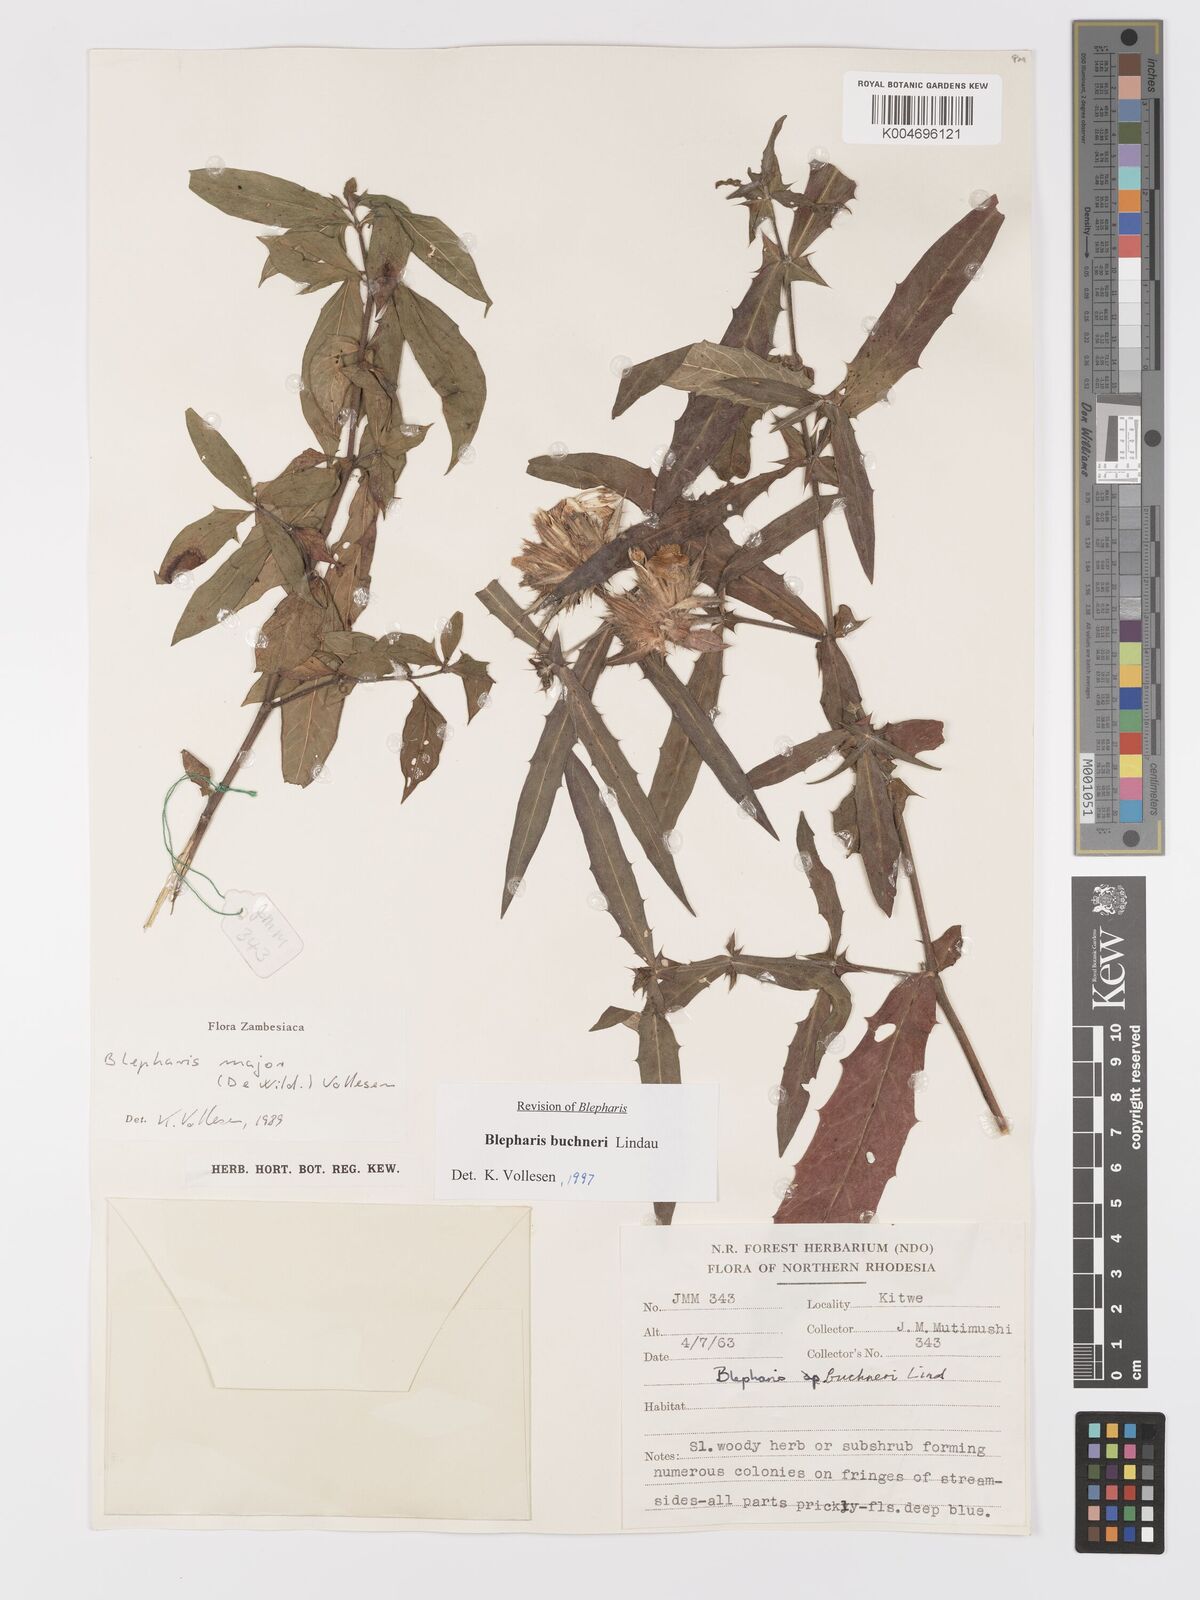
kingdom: Plantae
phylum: Tracheophyta
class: Magnoliopsida
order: Lamiales
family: Acanthaceae
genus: Blepharis
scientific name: Blepharis buchneri
